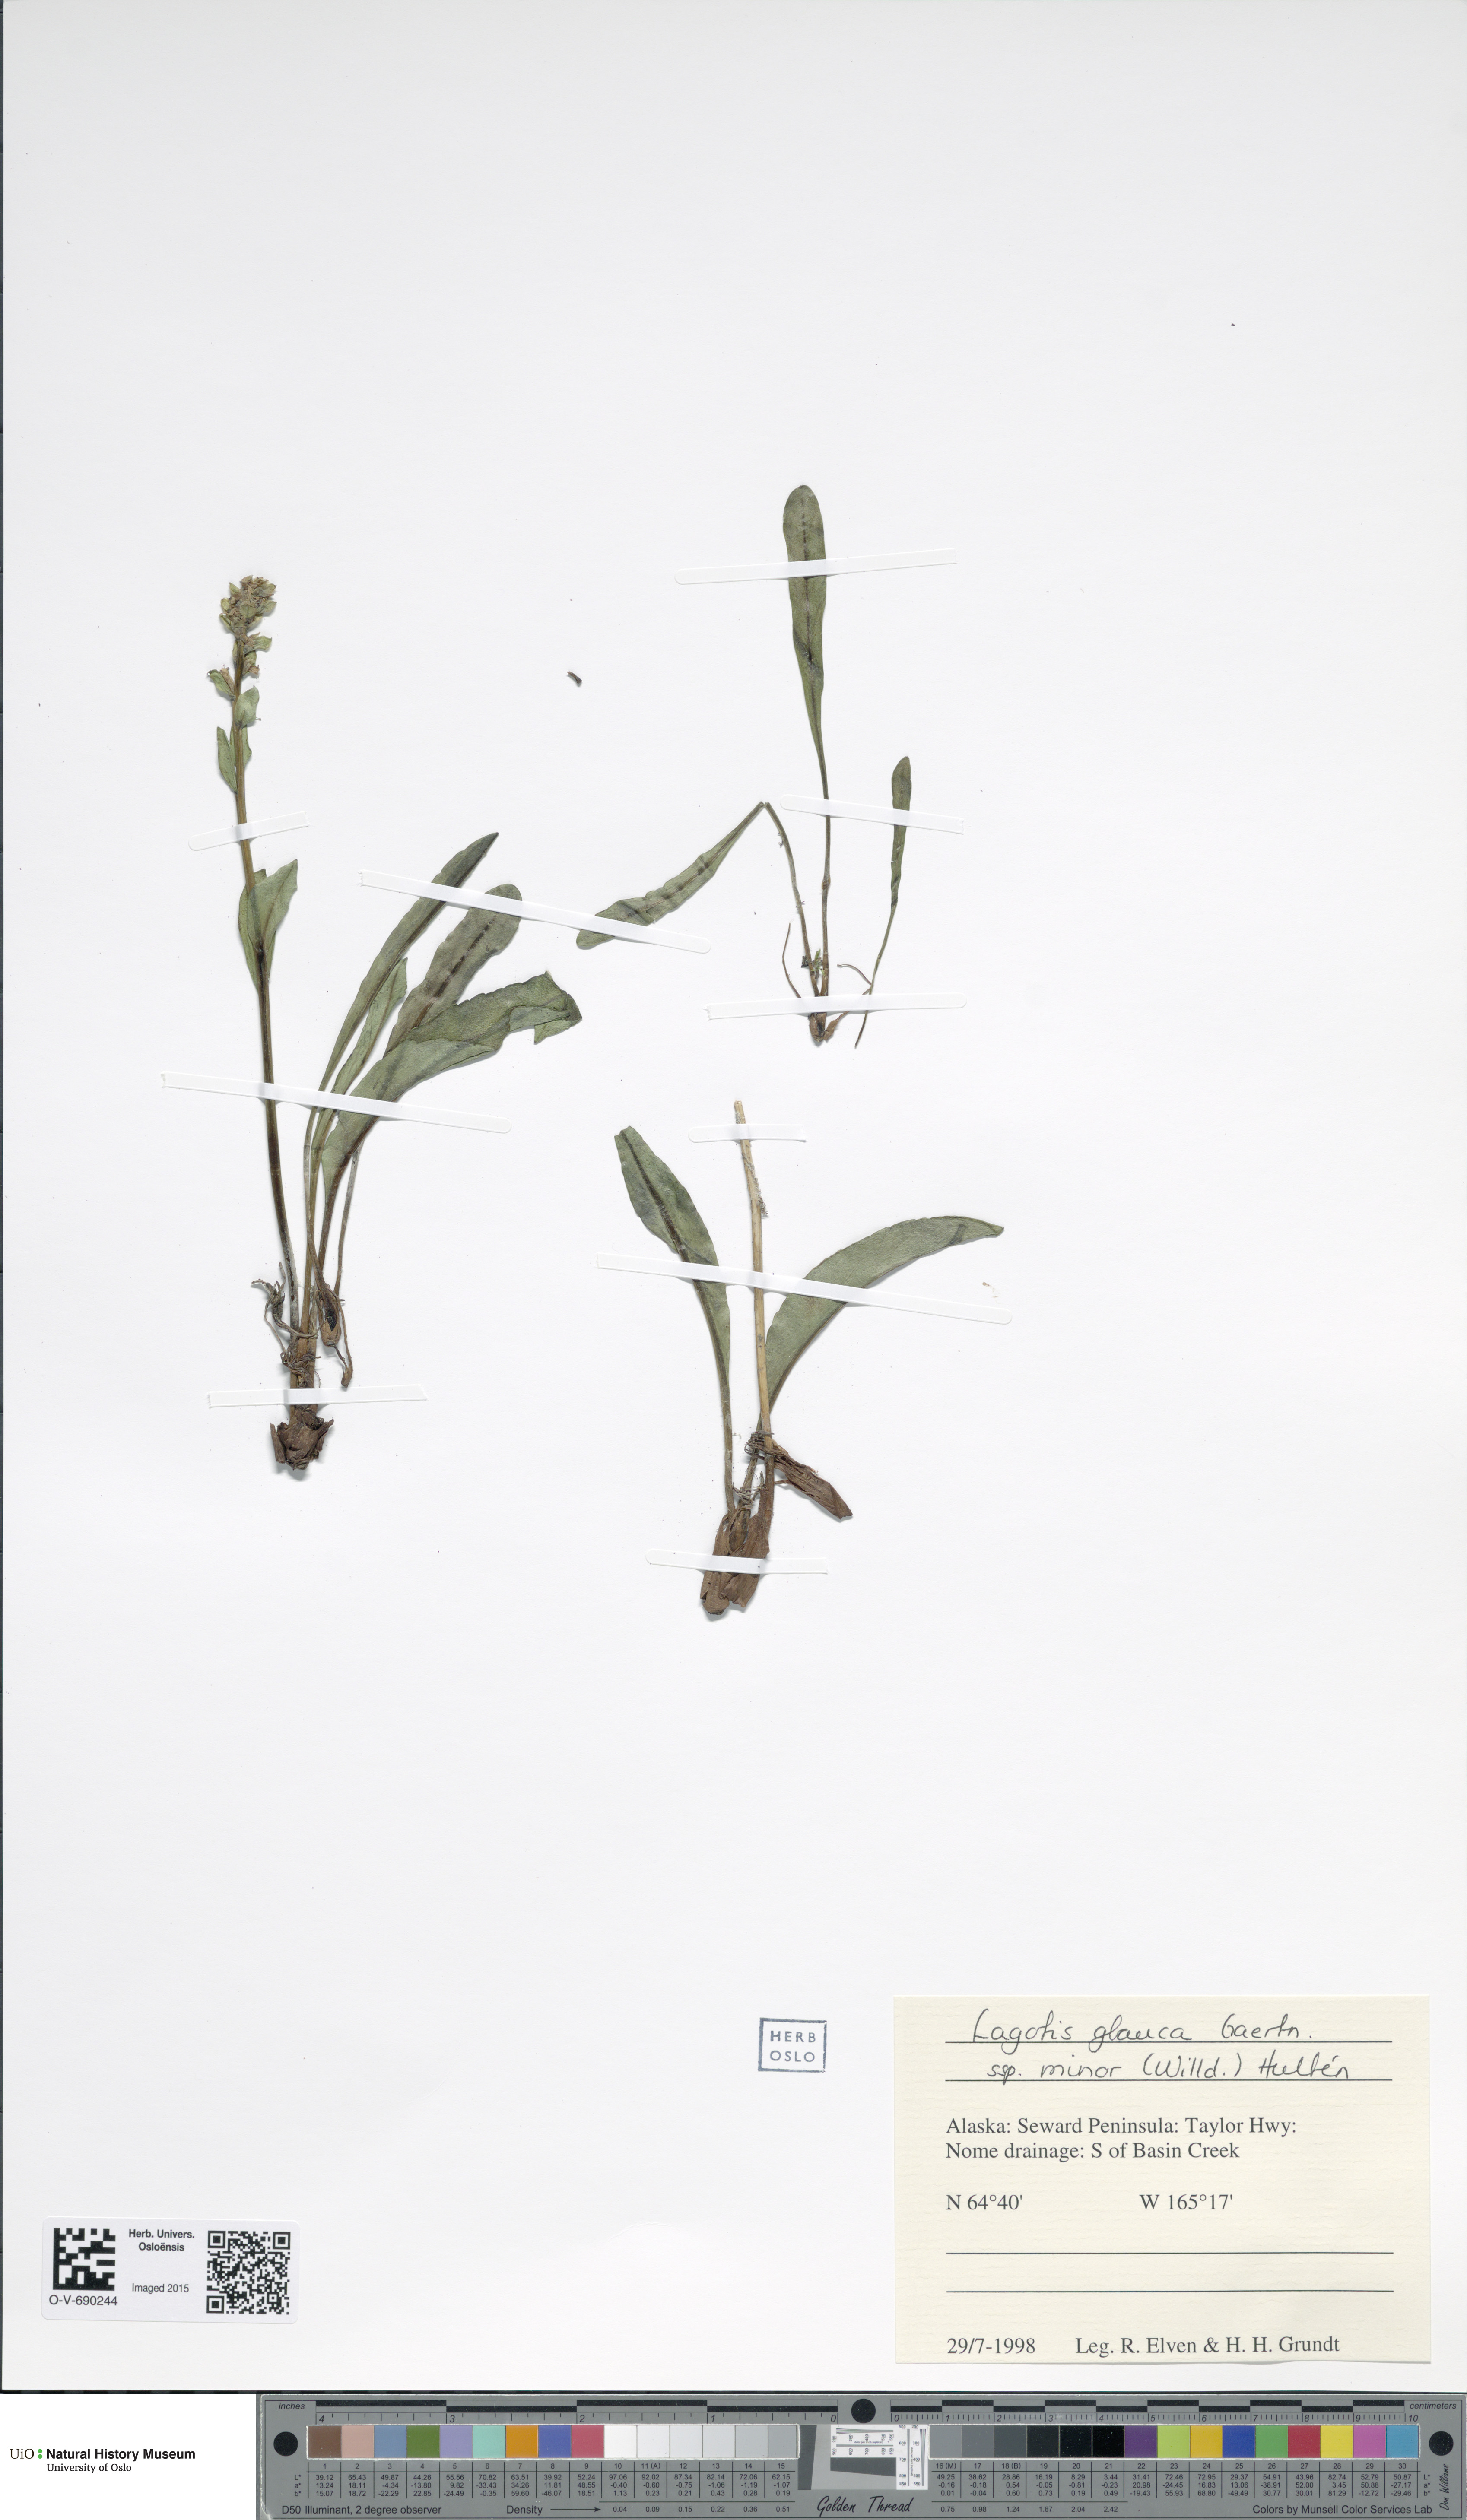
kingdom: Plantae
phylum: Tracheophyta
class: Magnoliopsida
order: Lamiales
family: Plantaginaceae
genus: Lagotis
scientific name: Lagotis glauca
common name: Glaucous weaselsnout
